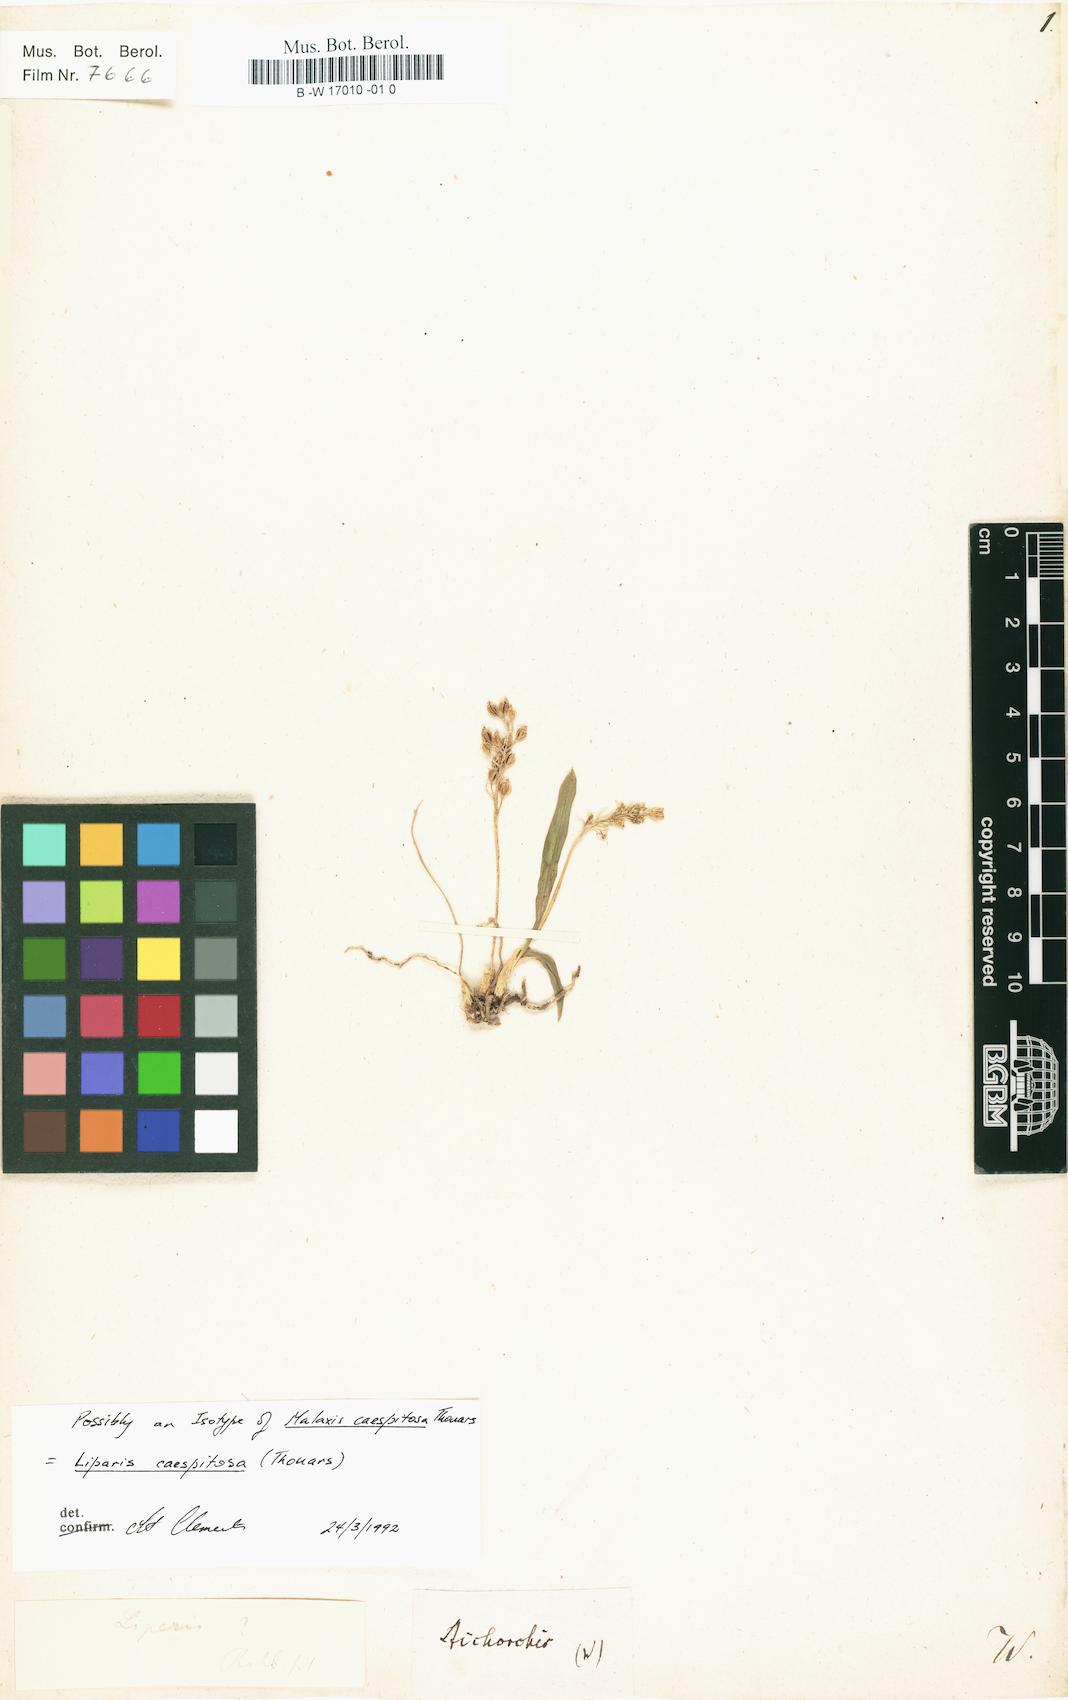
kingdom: Plantae
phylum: Tracheophyta
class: Liliopsida
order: Asparagales
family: Orchidaceae
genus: Stichorchis
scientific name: Stichorchis
